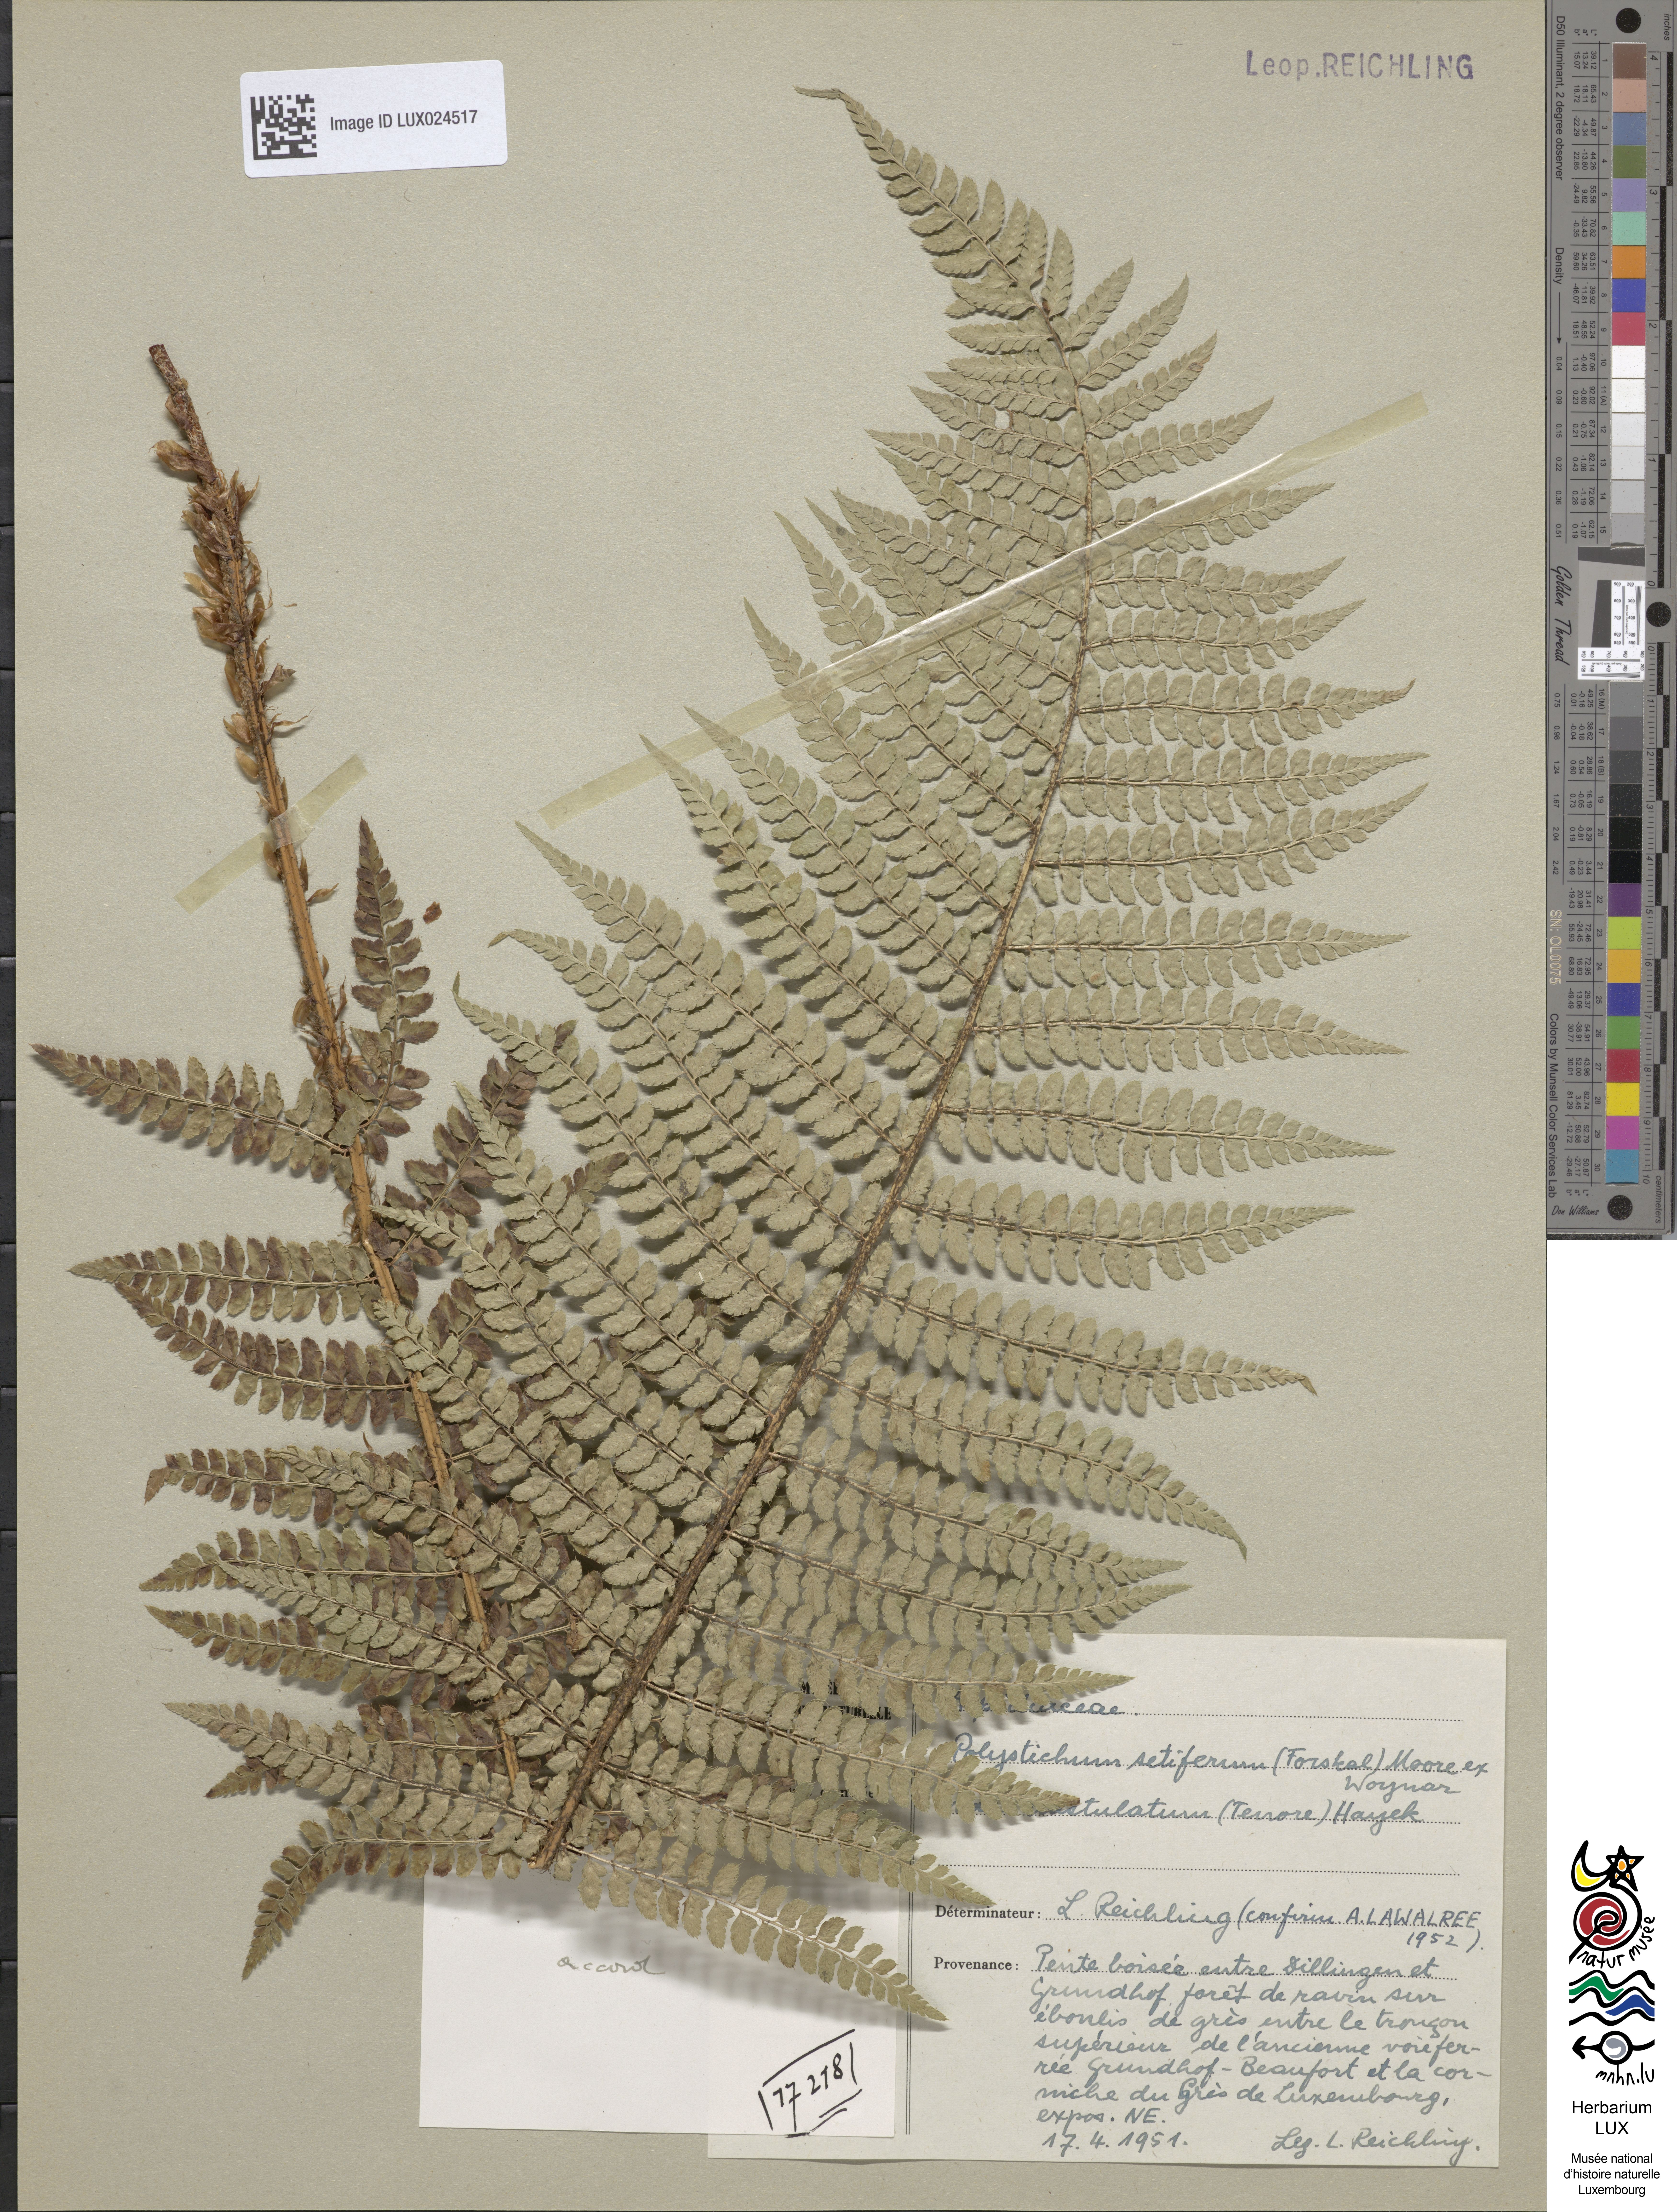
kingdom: Plantae
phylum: Tracheophyta
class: Polypodiopsida
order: Polypodiales
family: Dryopteridaceae
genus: Polystichum
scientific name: Polystichum setiferum
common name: Soft shield-fern
